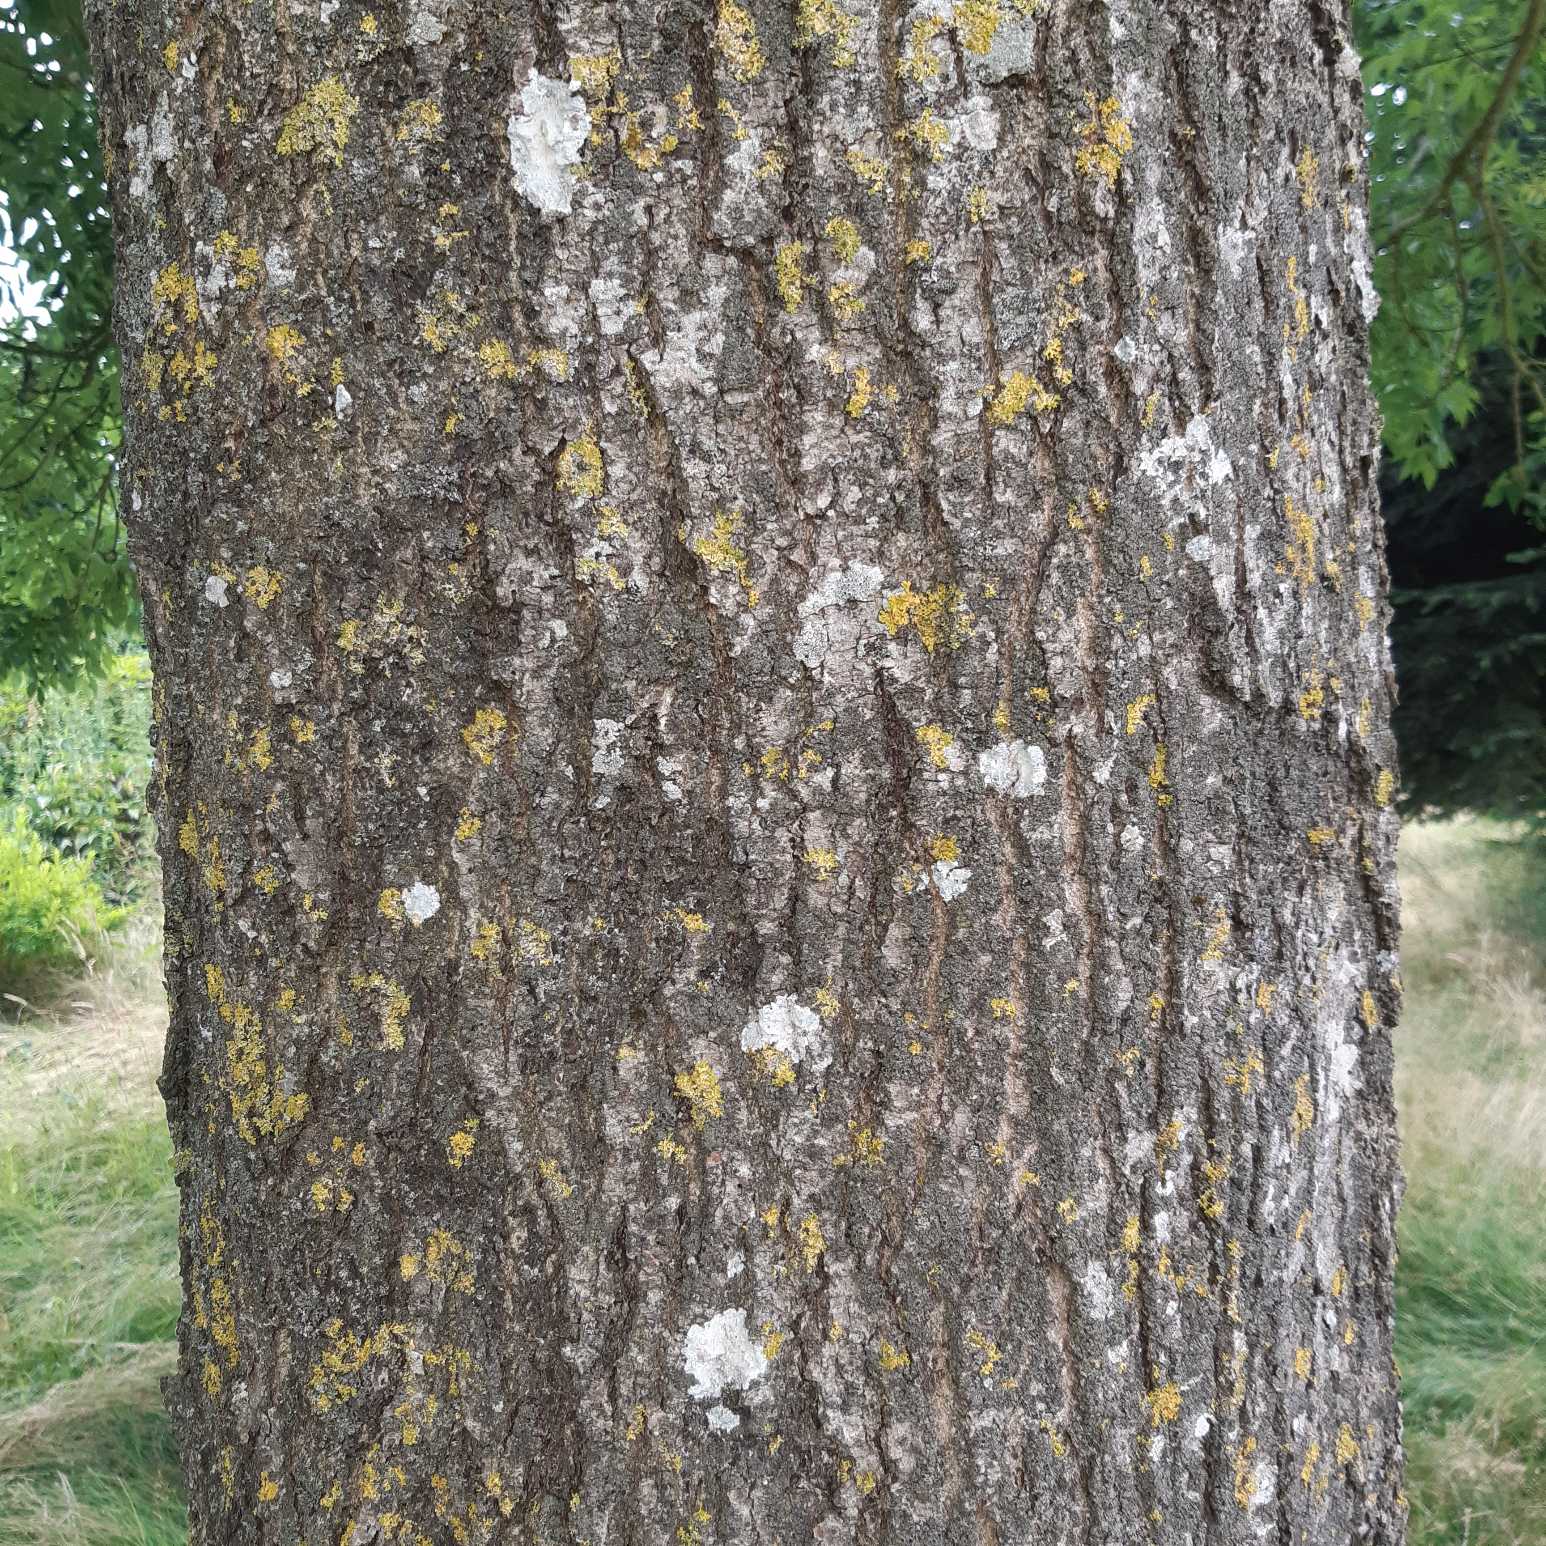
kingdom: Plantae
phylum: Tracheophyta
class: Magnoliopsida
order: Lamiales
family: Oleaceae
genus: Fraxinus
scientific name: Fraxinus excelsior
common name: Ask
